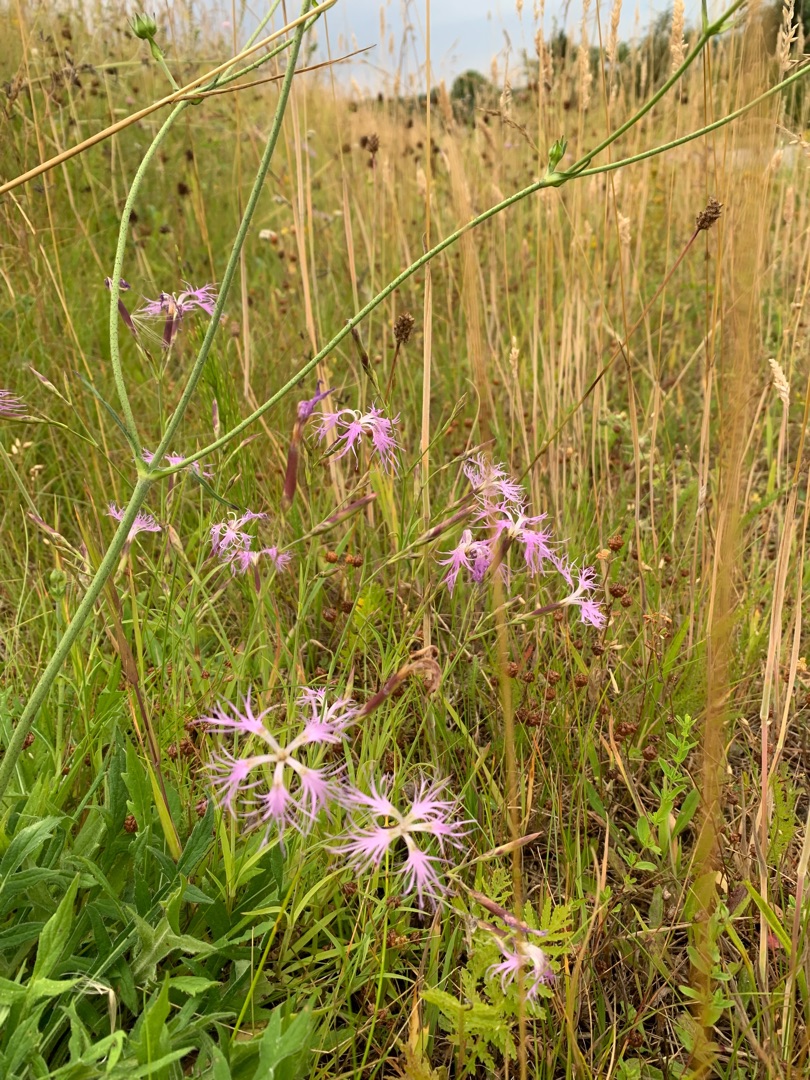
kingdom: Plantae
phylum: Tracheophyta
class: Magnoliopsida
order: Caryophyllales
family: Caryophyllaceae
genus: Dianthus
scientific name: Dianthus superbus
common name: Strand-nellike
